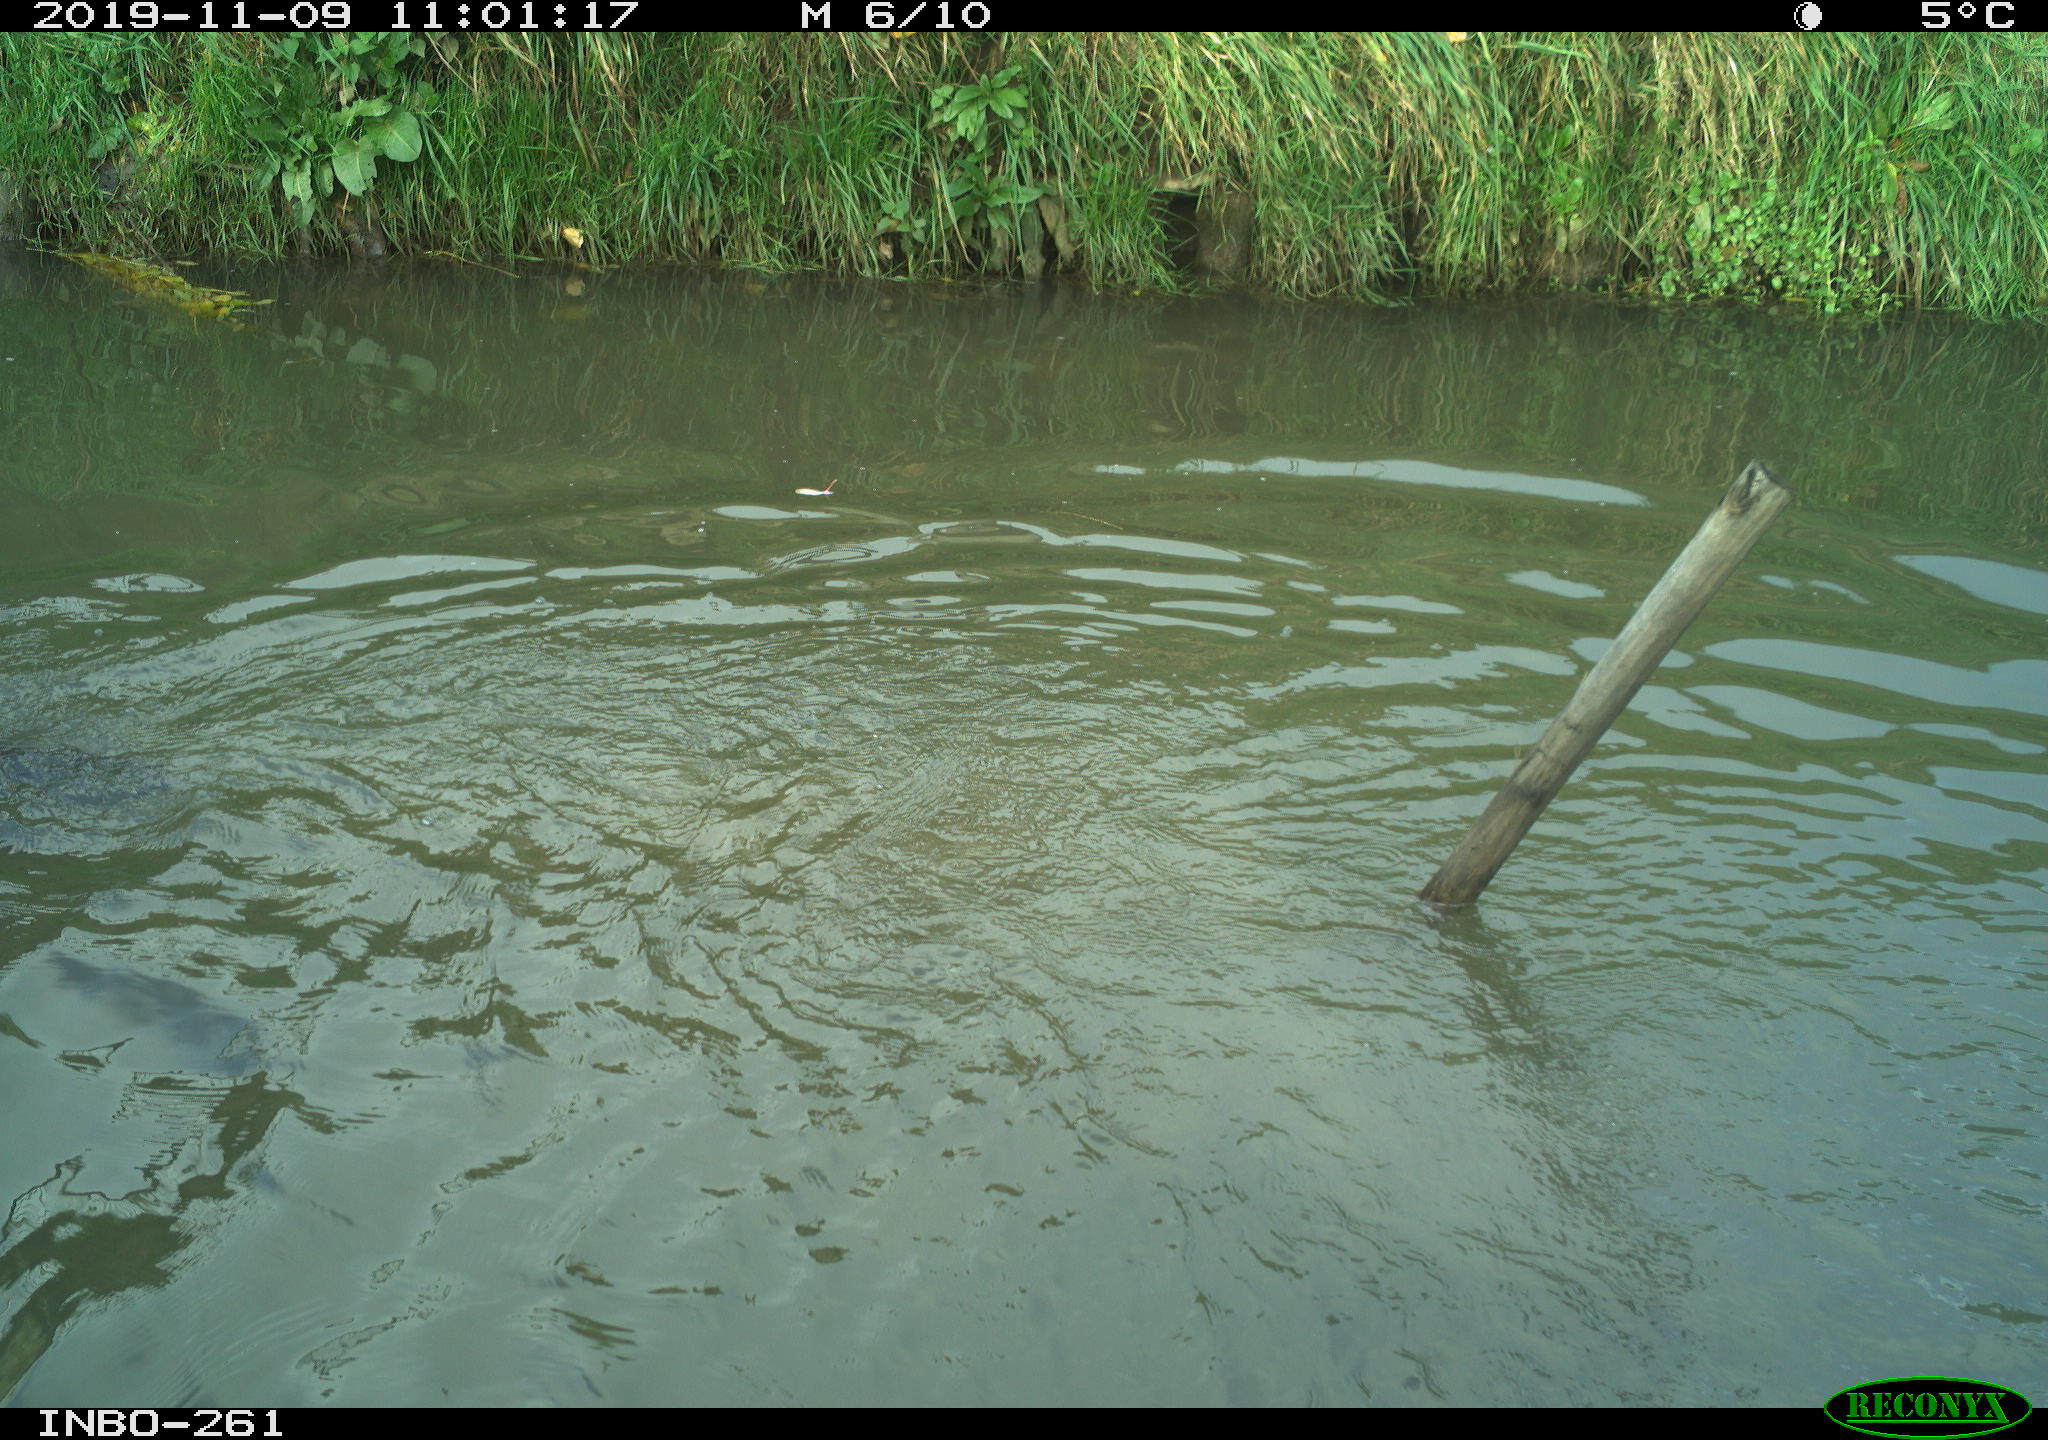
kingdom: Animalia
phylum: Chordata
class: Mammalia
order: Carnivora
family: Canidae
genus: Canis
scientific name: Canis lupus
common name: Gray wolf
